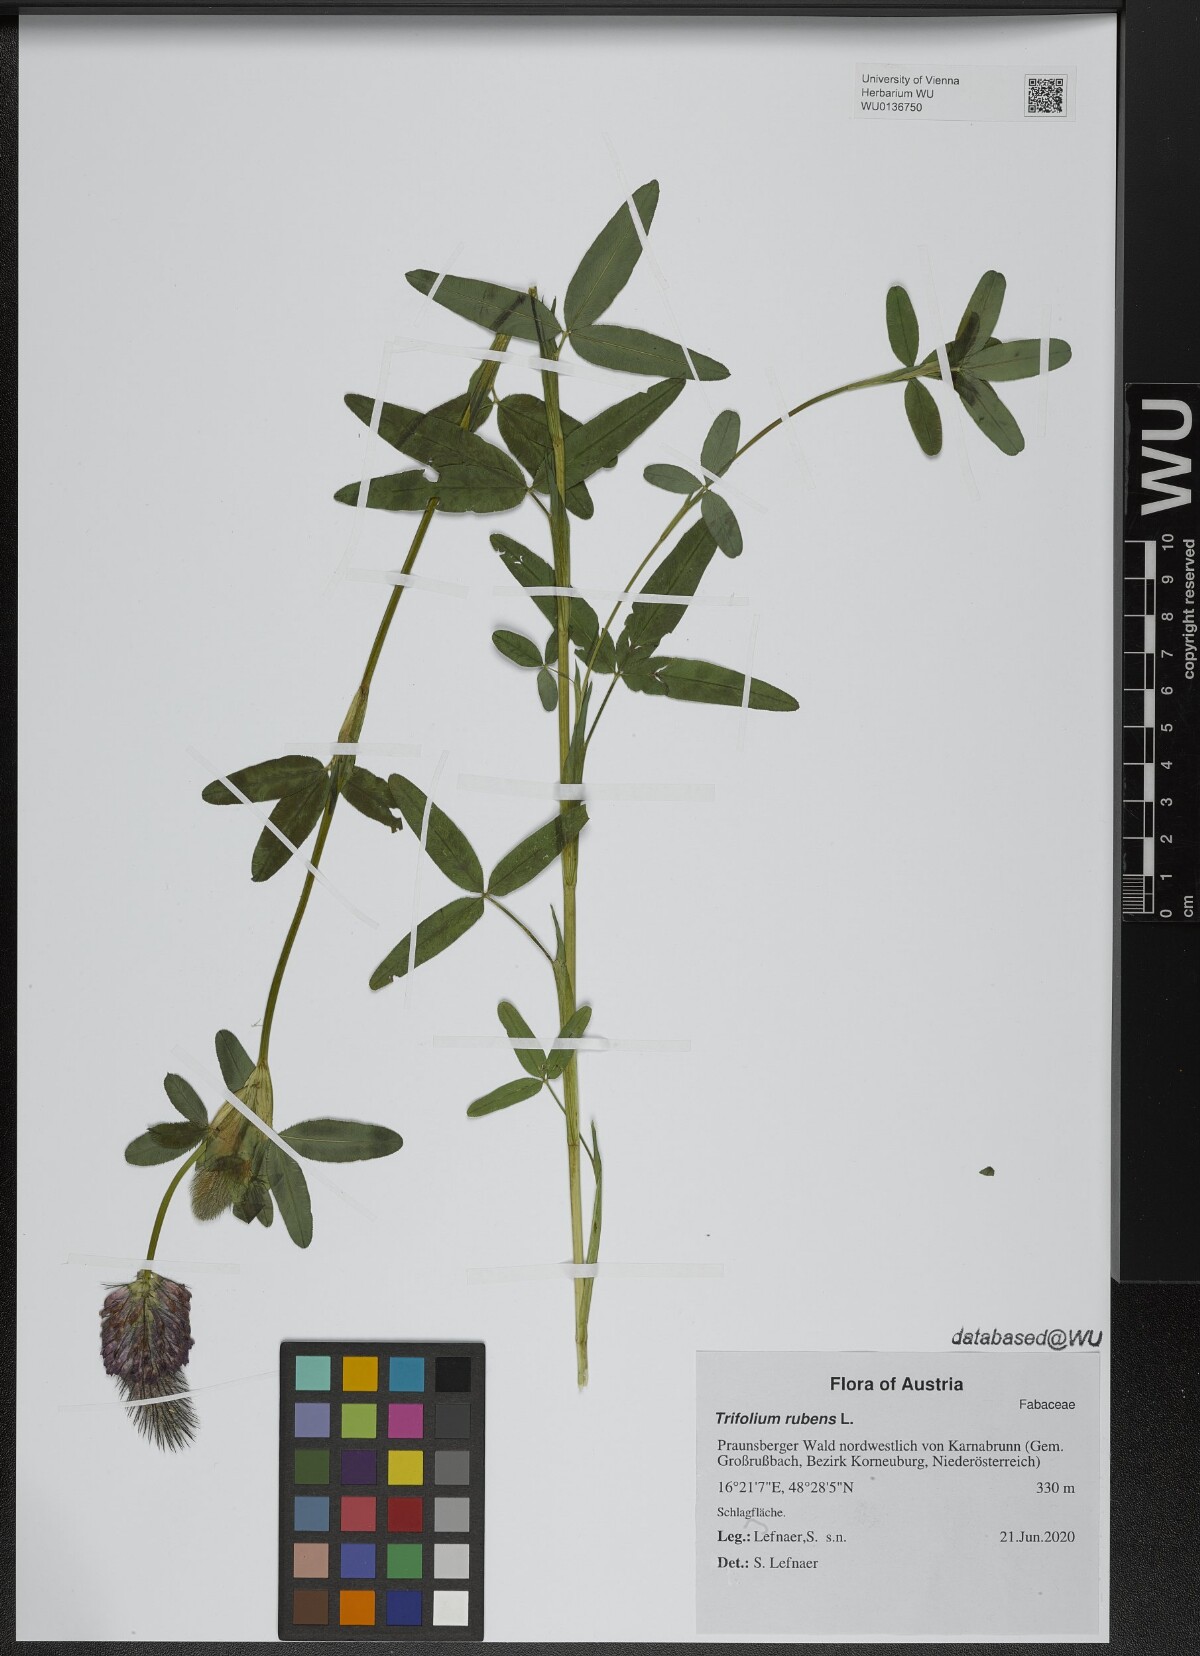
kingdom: Plantae
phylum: Tracheophyta
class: Magnoliopsida
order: Fabales
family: Fabaceae
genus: Trifolium
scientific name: Trifolium rubens
